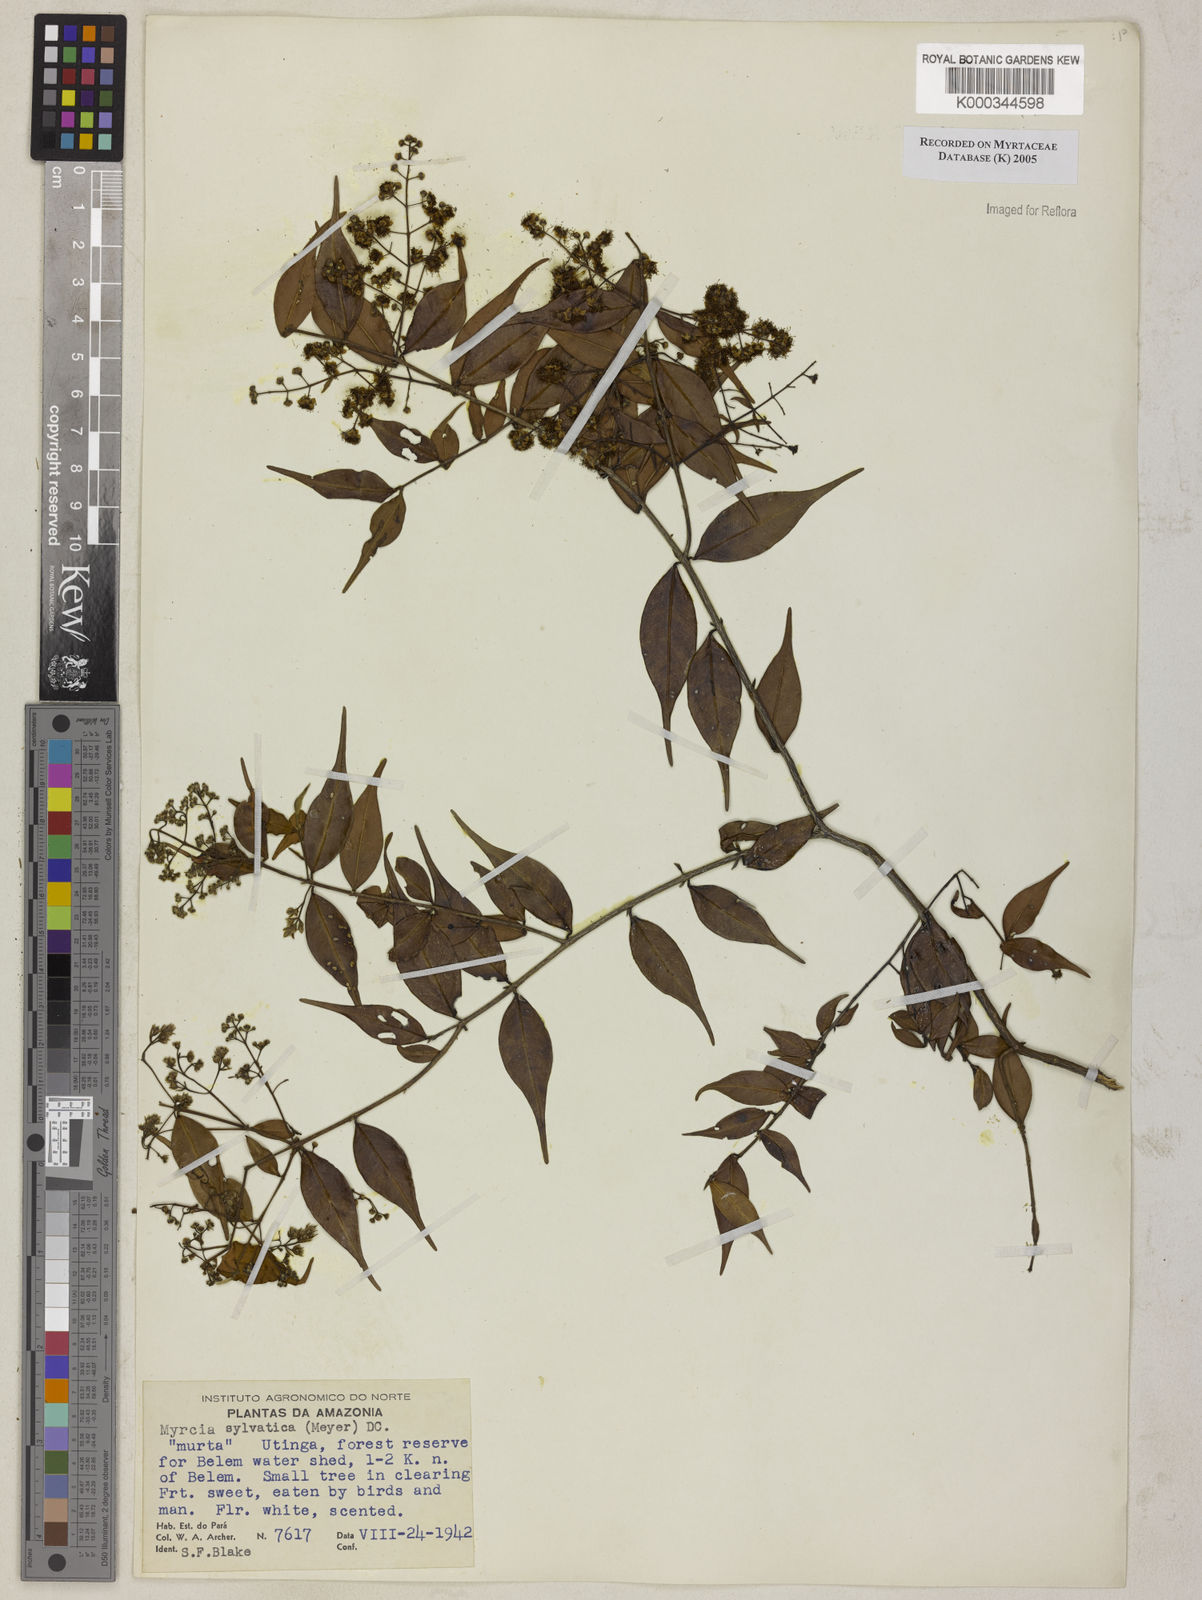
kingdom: Plantae
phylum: Tracheophyta
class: Magnoliopsida
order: Myrtales
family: Myrtaceae
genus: Myrcia
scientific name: Myrcia sylvatica
